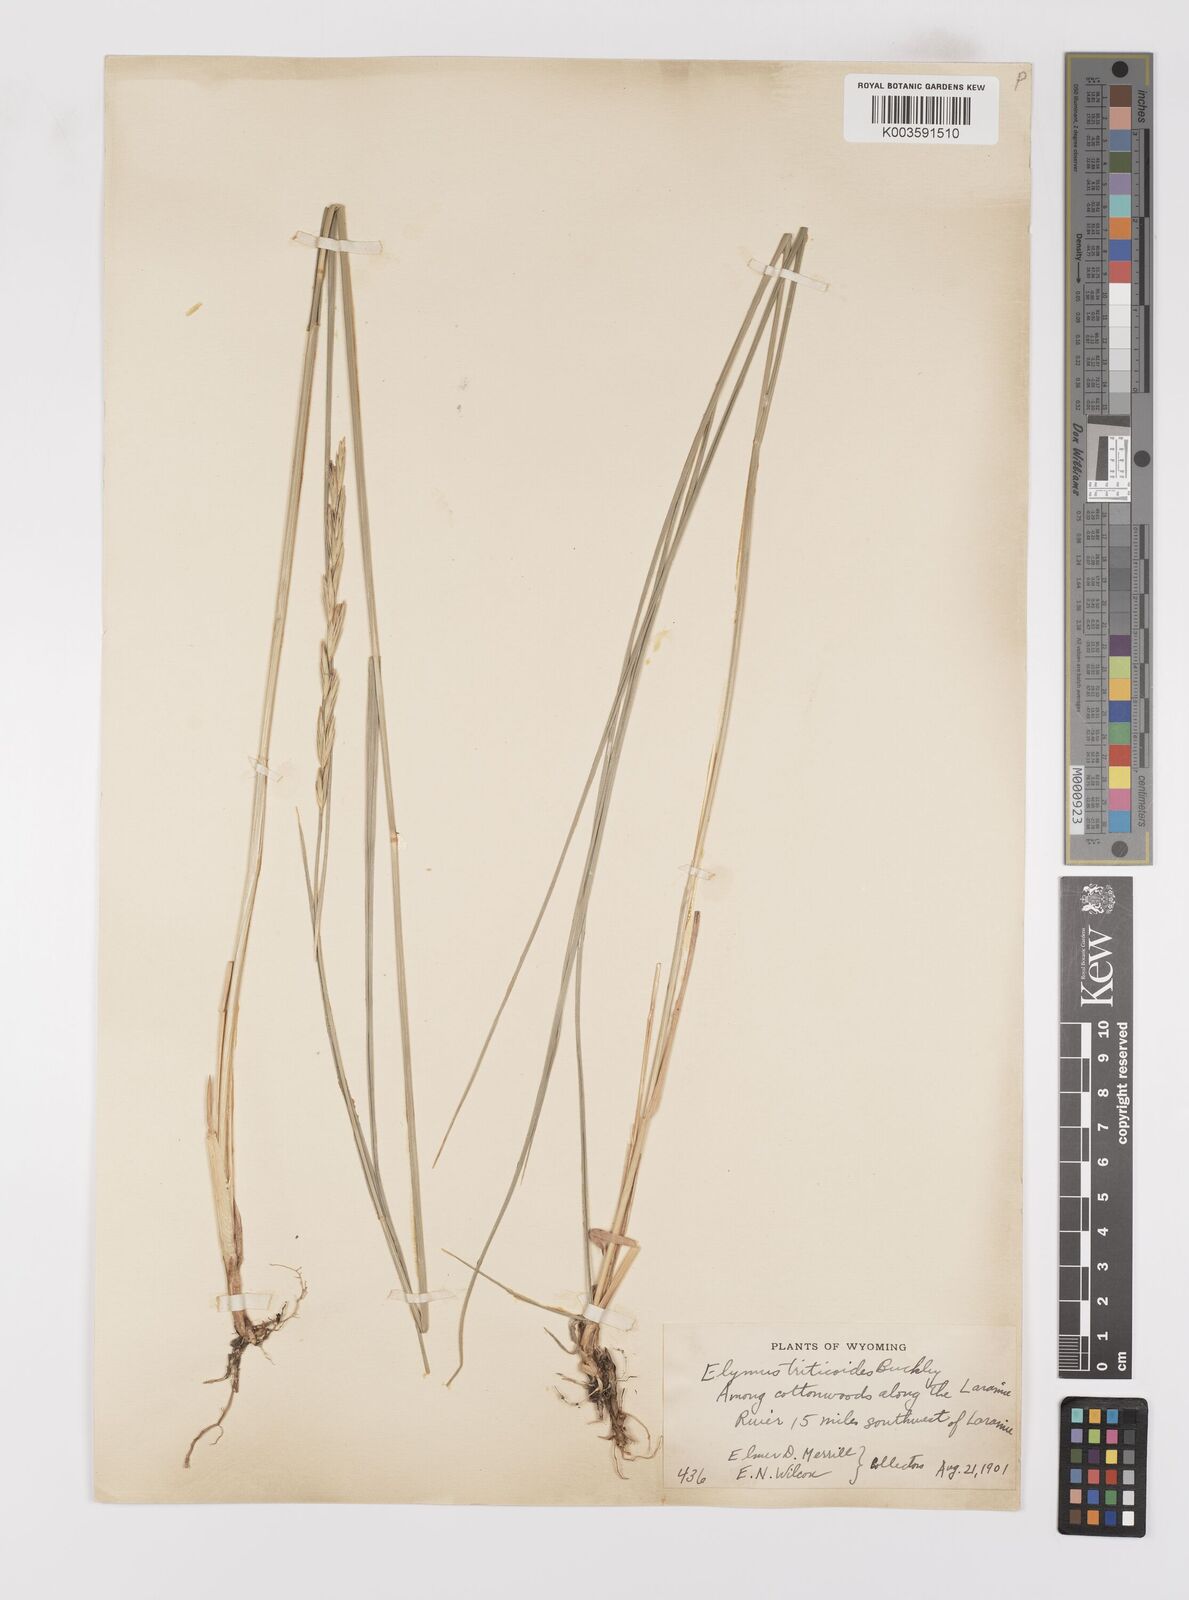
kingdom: Plantae
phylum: Tracheophyta
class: Liliopsida
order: Poales
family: Poaceae
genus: Leymus
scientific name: Leymus triticoides
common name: Beardless wild rye
